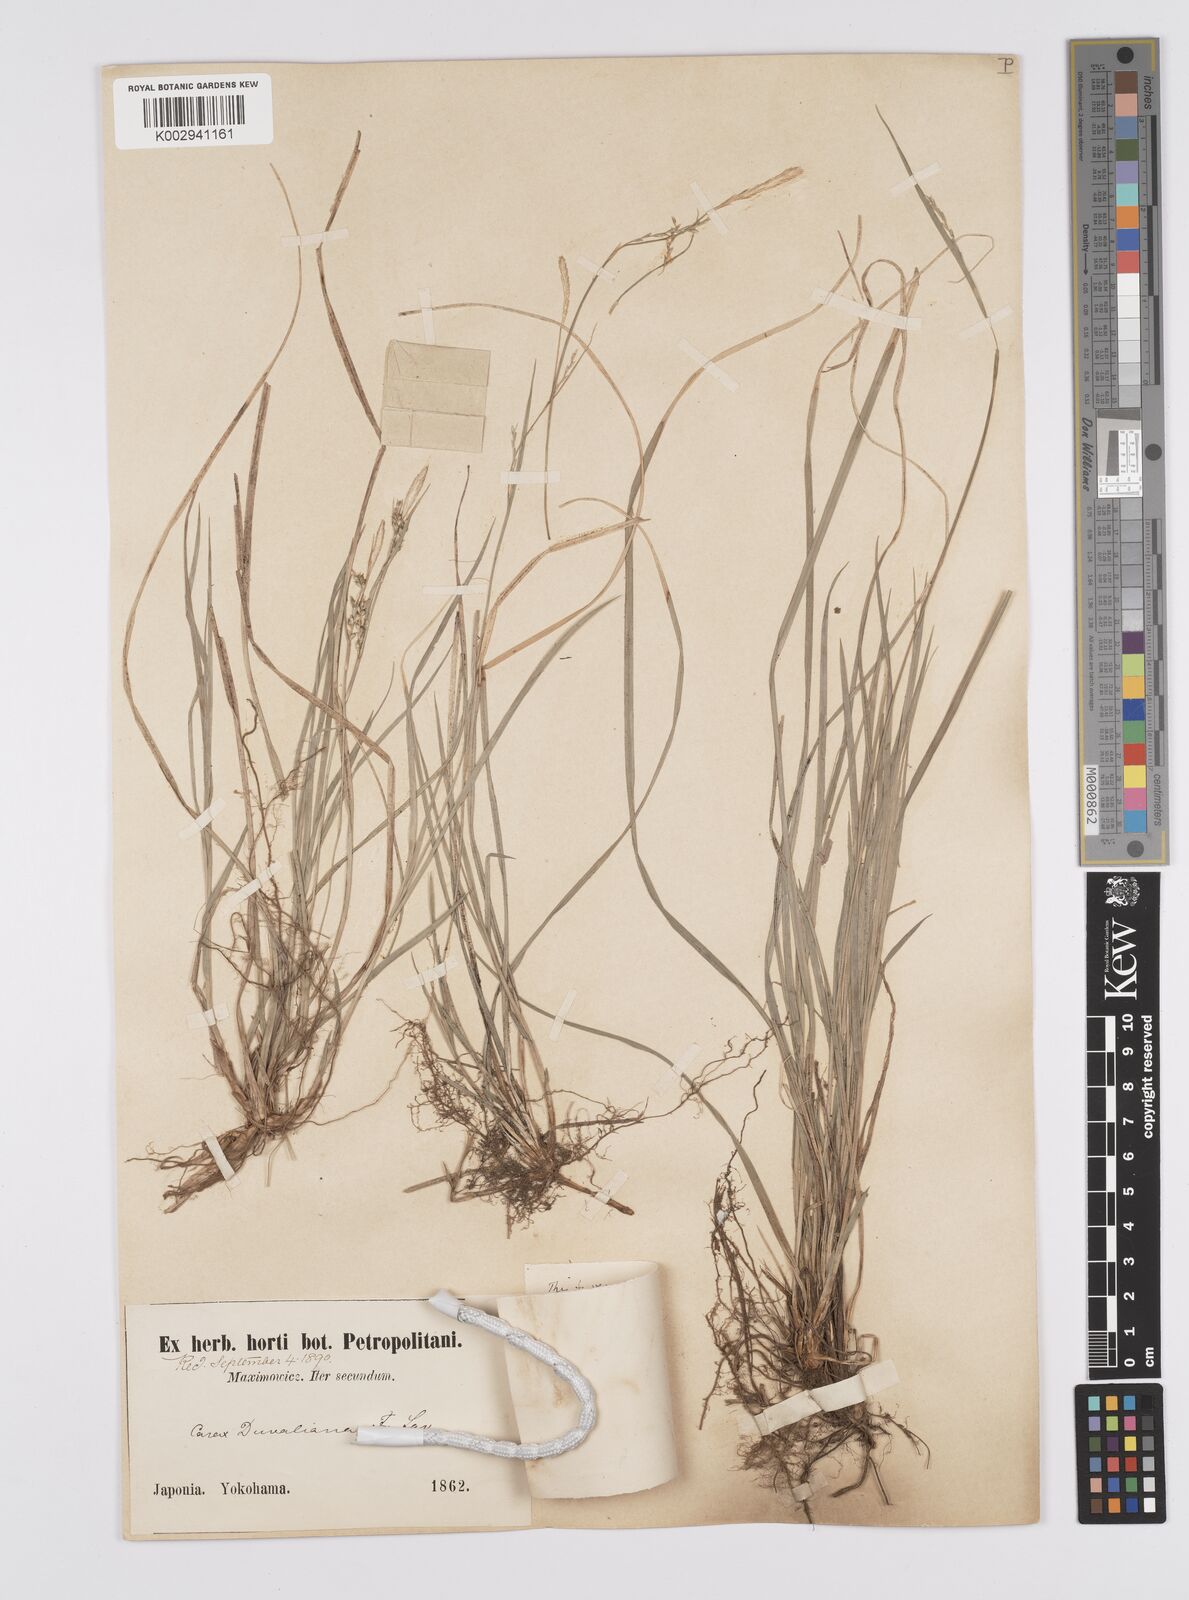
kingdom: Plantae
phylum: Tracheophyta
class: Liliopsida
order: Poales
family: Cyperaceae
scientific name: Cyperaceae
